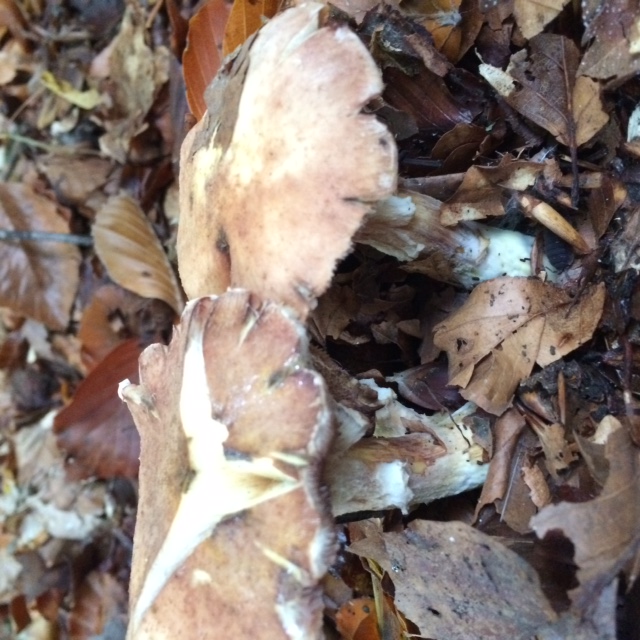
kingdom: Fungi
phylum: Basidiomycota
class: Agaricomycetes
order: Agaricales
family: Physalacriaceae
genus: Armillaria
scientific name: Armillaria lutea
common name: køllestokket honningsvamp
